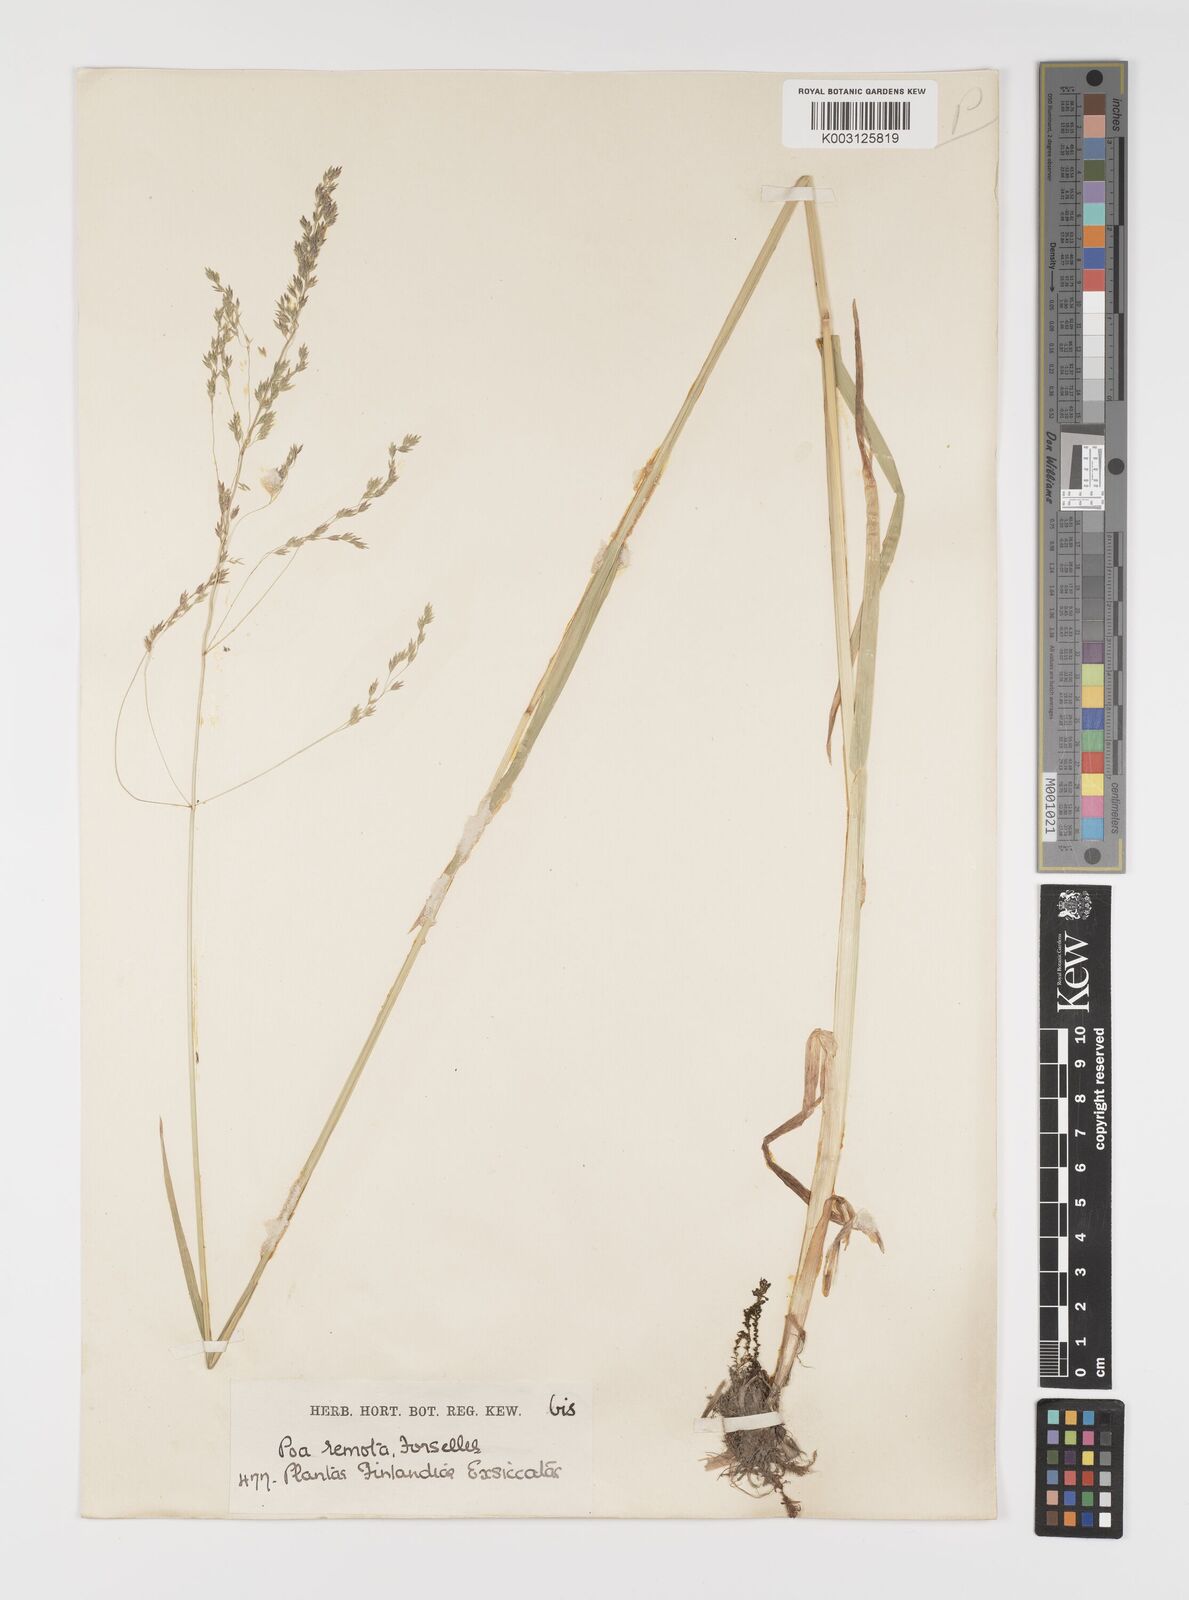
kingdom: Plantae
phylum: Tracheophyta
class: Liliopsida
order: Poales
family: Poaceae
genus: Poa
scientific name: Poa remota
